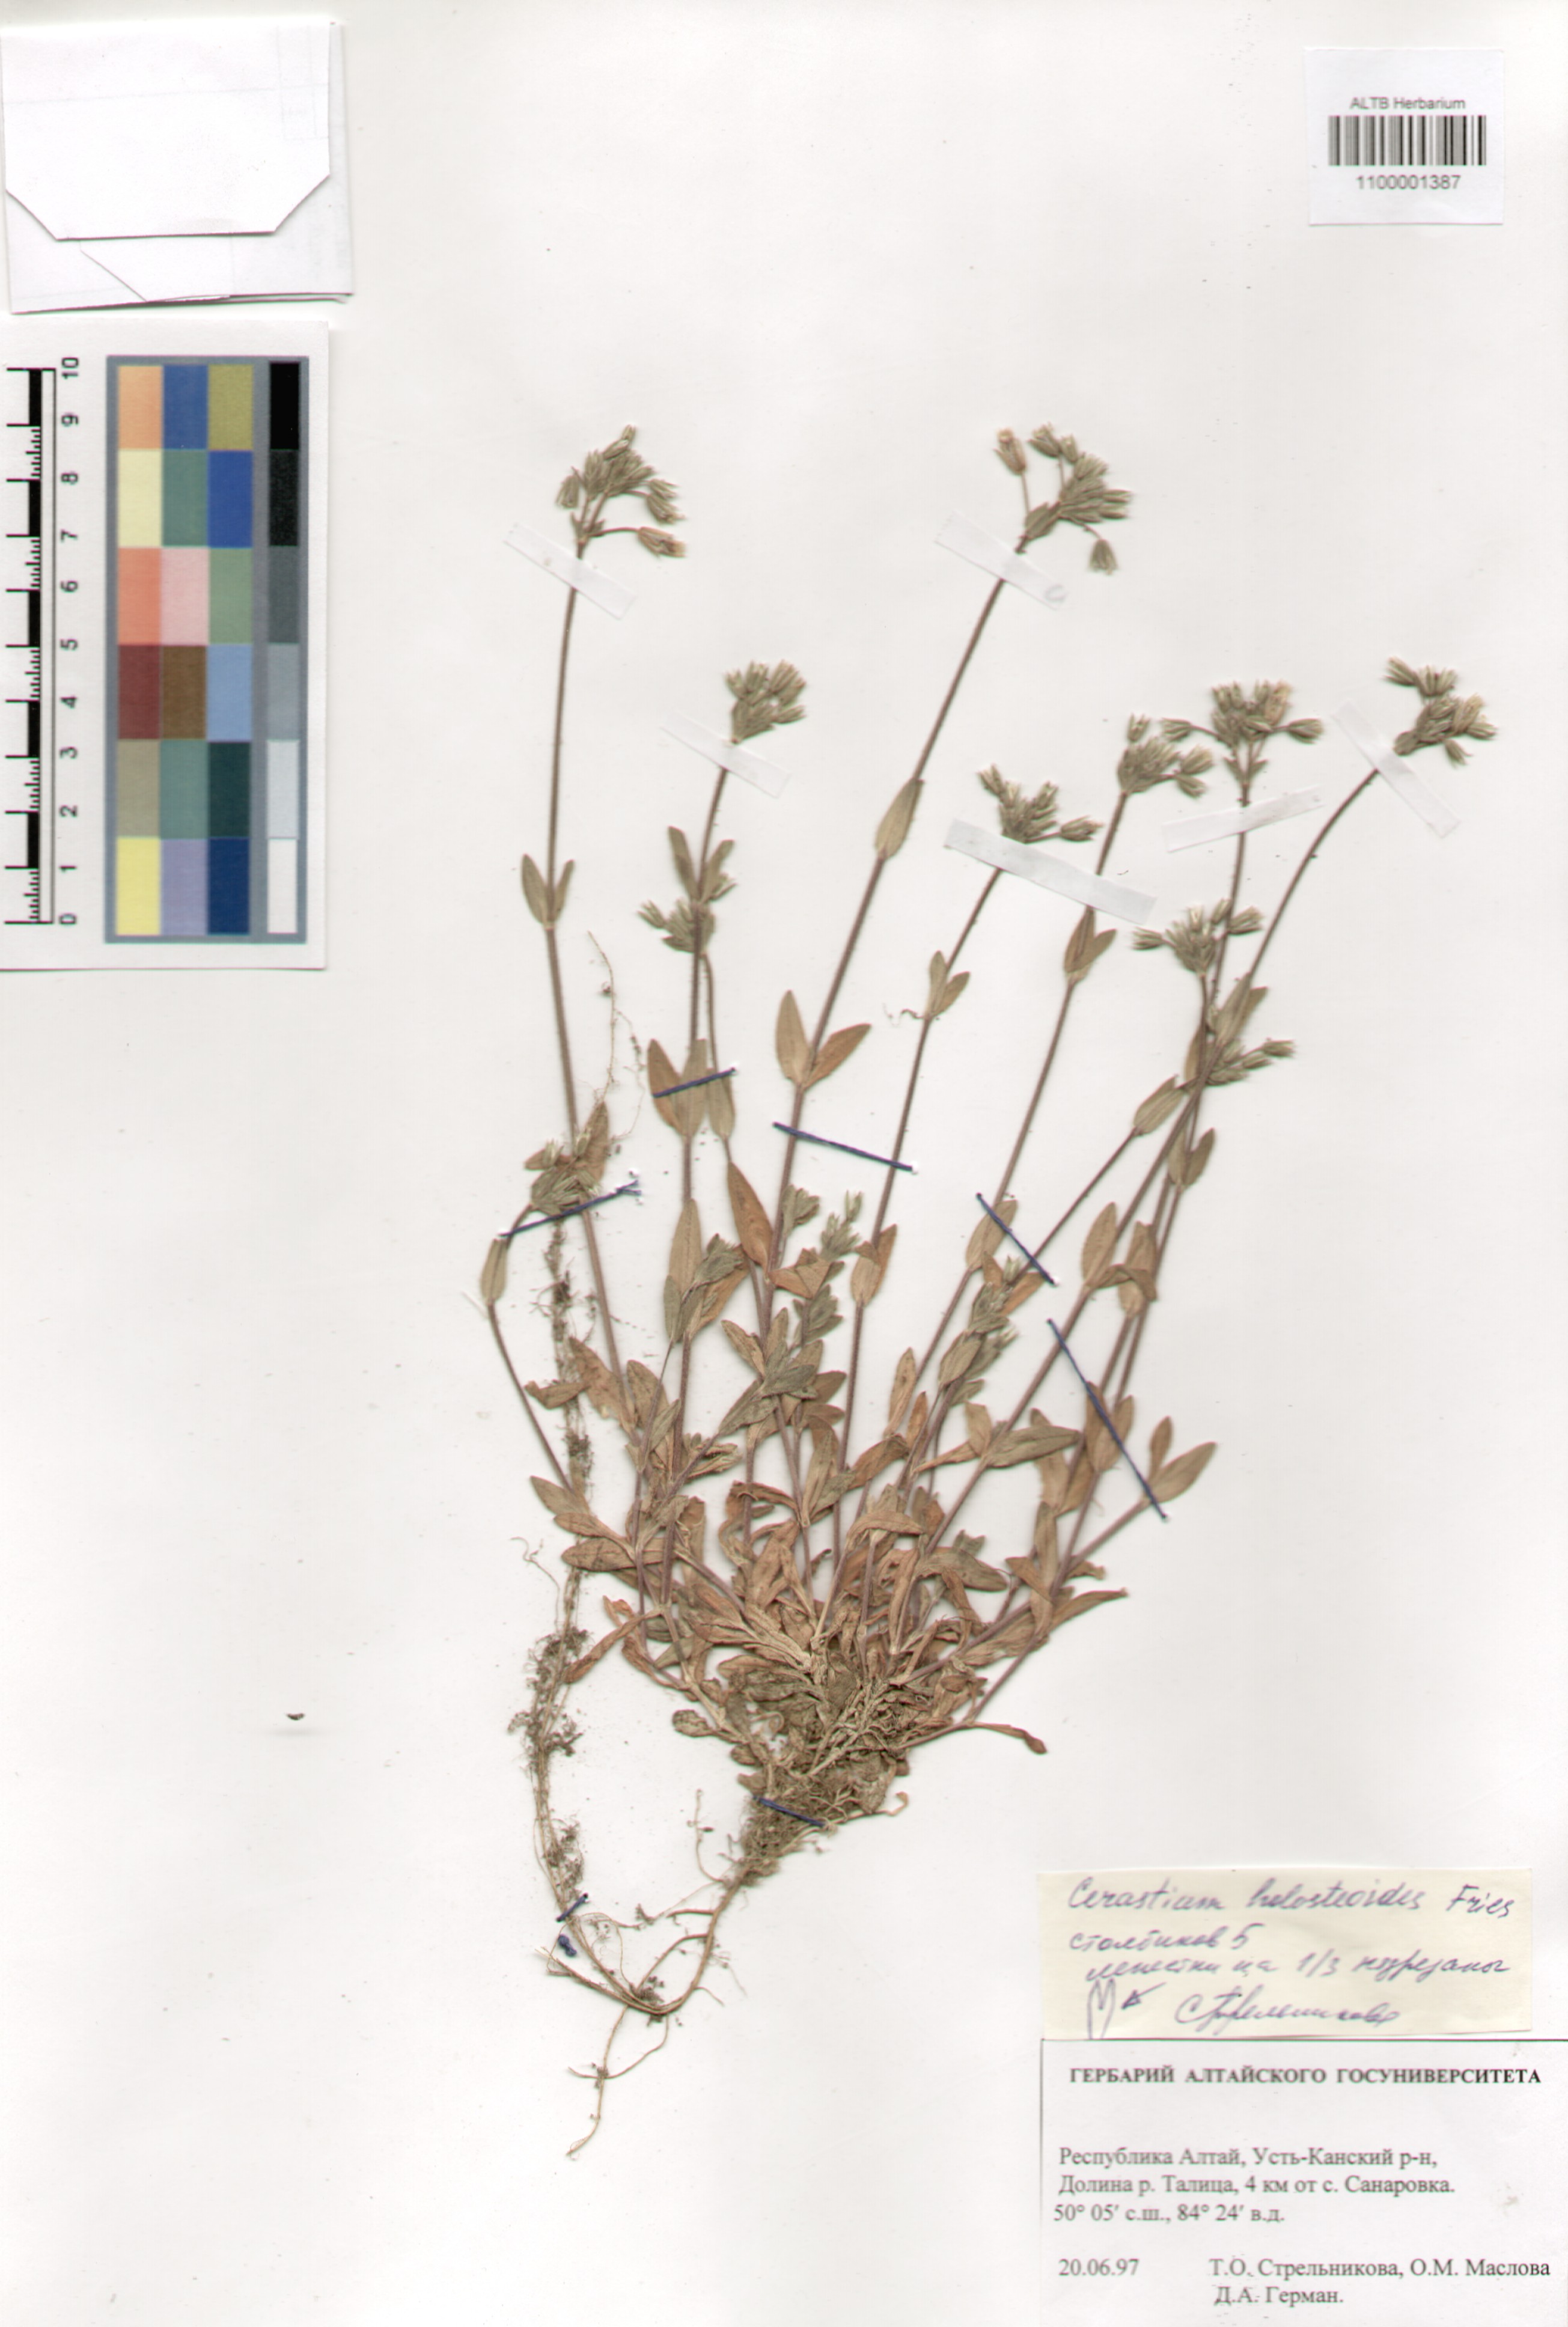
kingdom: Plantae
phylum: Tracheophyta
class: Magnoliopsida
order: Caryophyllales
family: Caryophyllaceae
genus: Cerastium
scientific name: Cerastium holosteoides
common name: Big chickweed
